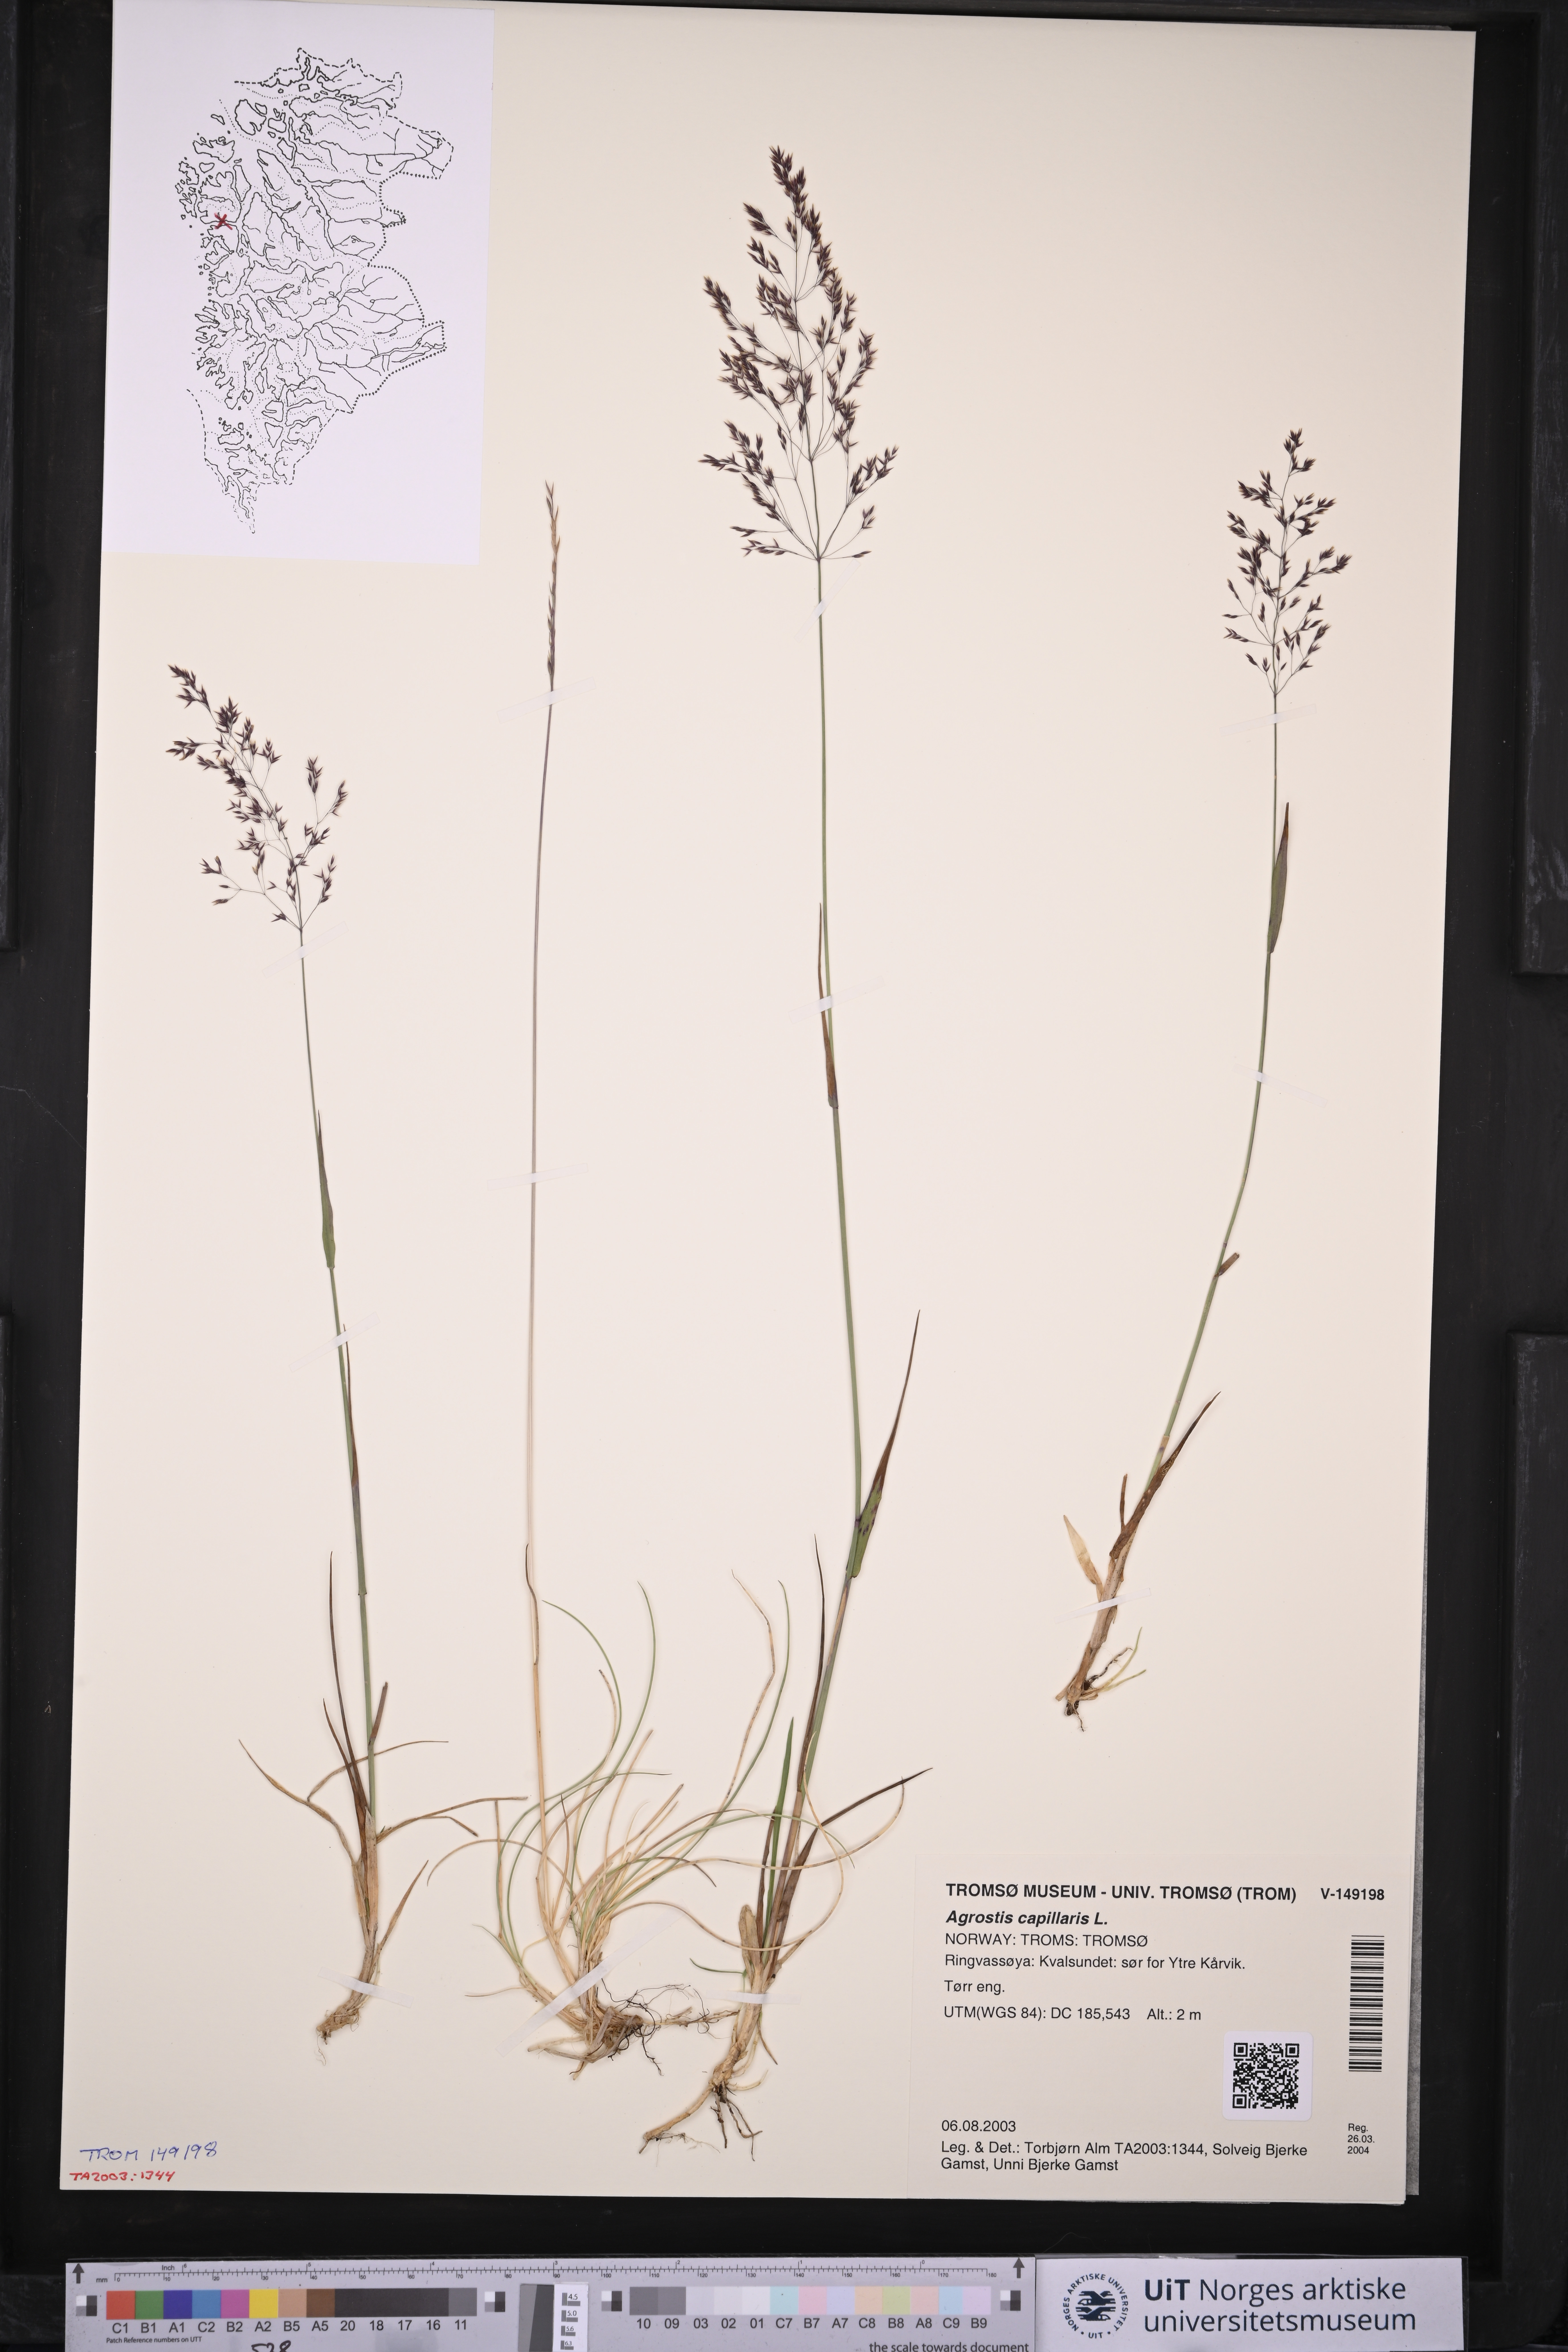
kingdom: Plantae
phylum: Tracheophyta
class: Liliopsida
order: Poales
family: Poaceae
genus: Agrostis
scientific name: Agrostis capillaris
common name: Colonial bentgrass
